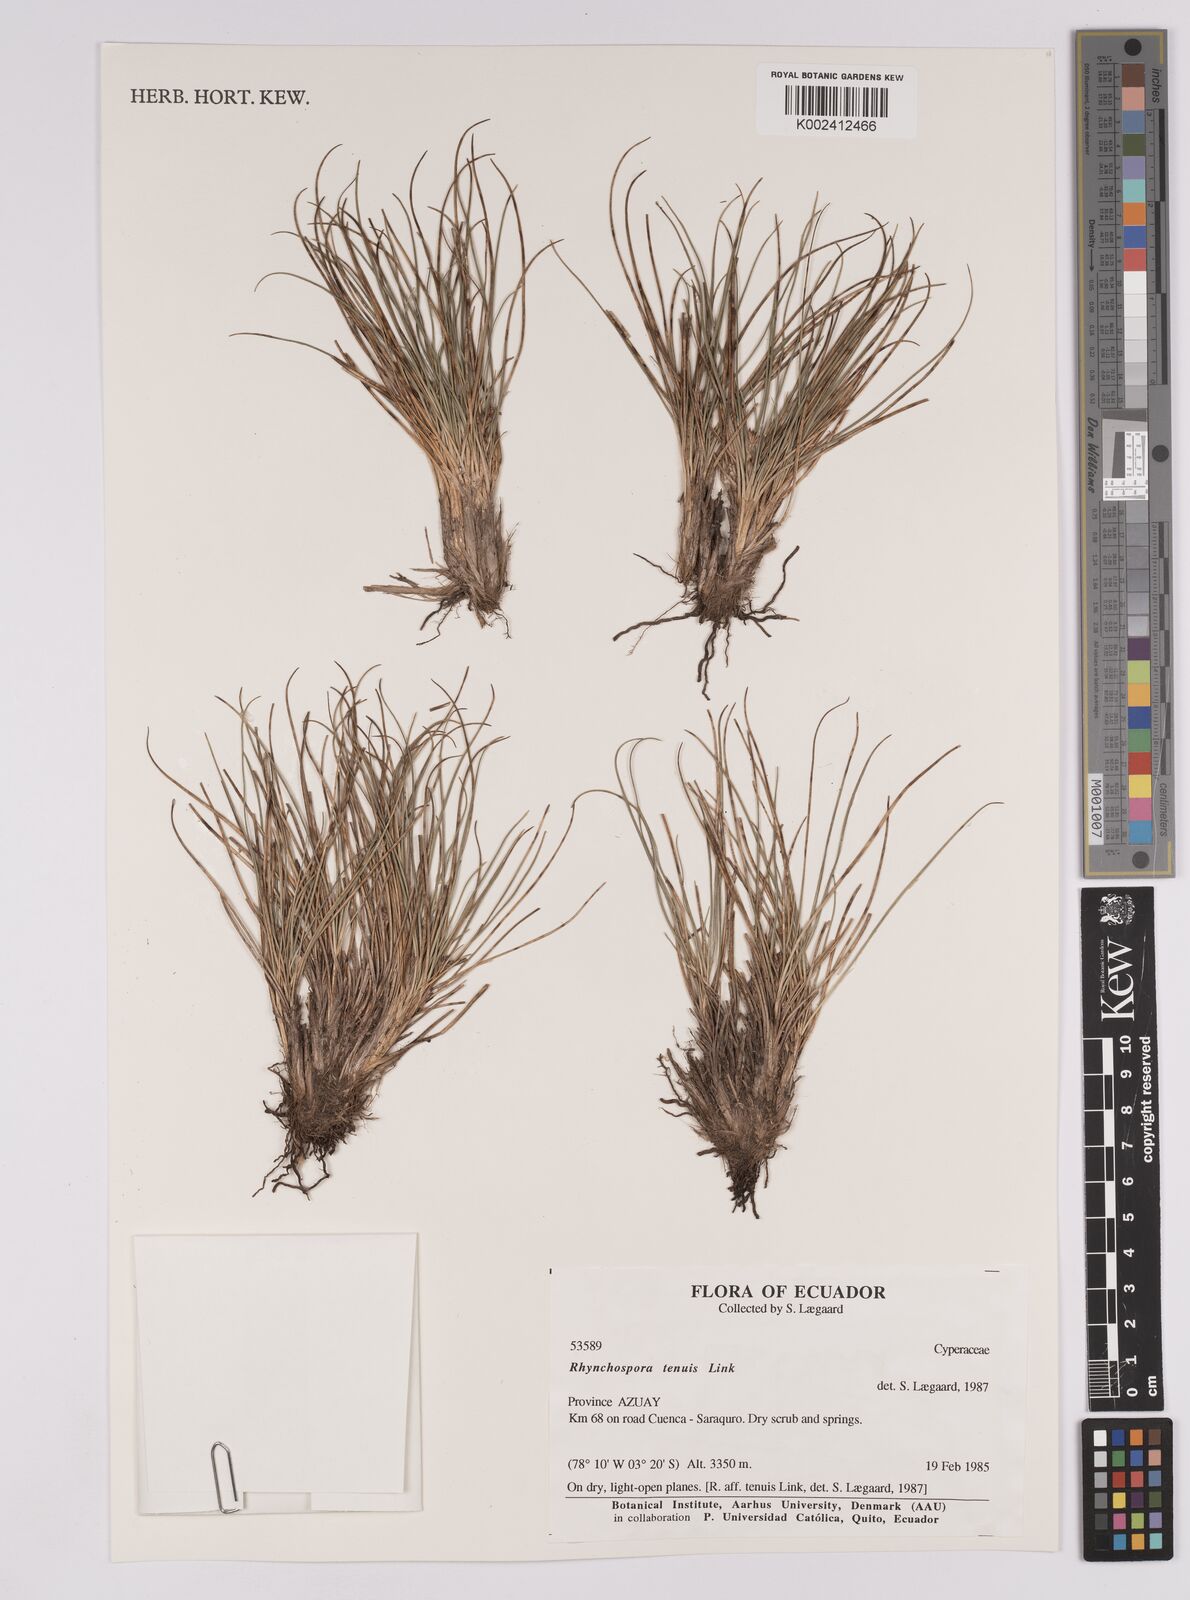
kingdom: Plantae
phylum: Tracheophyta
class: Liliopsida
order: Poales
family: Cyperaceae
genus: Rhynchospora
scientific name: Rhynchospora tenuis
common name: Quill beaksedge
